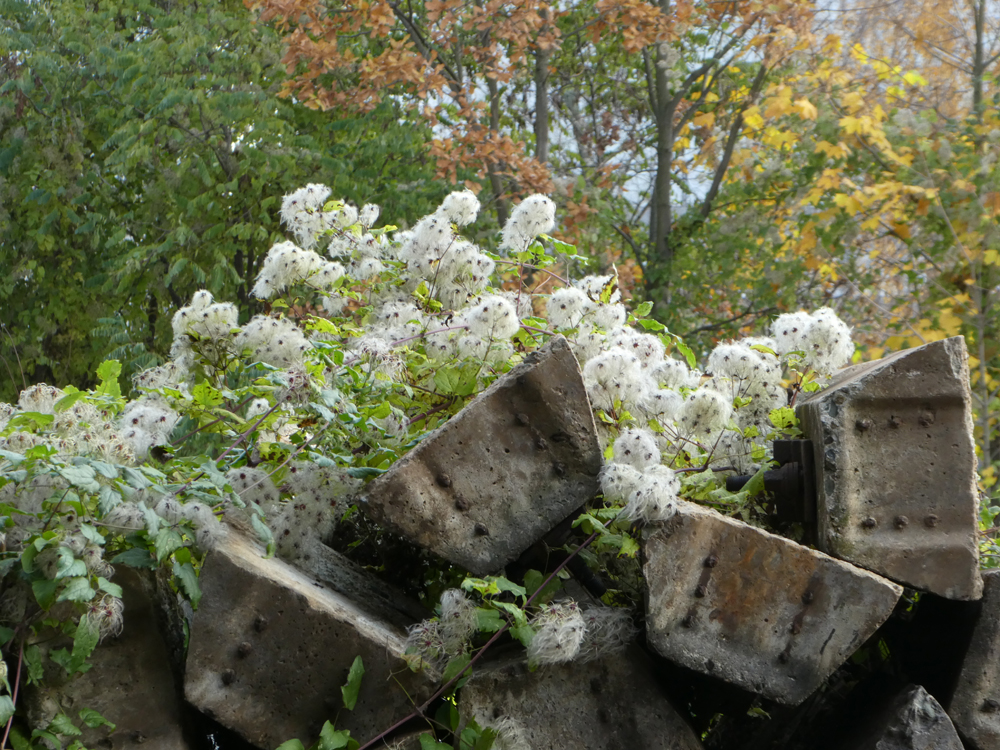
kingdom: Plantae
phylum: Tracheophyta
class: Magnoliopsida
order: Ranunculales
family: Ranunculaceae
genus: Clematis
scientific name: Clematis vitalba
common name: Evergreen clematis
